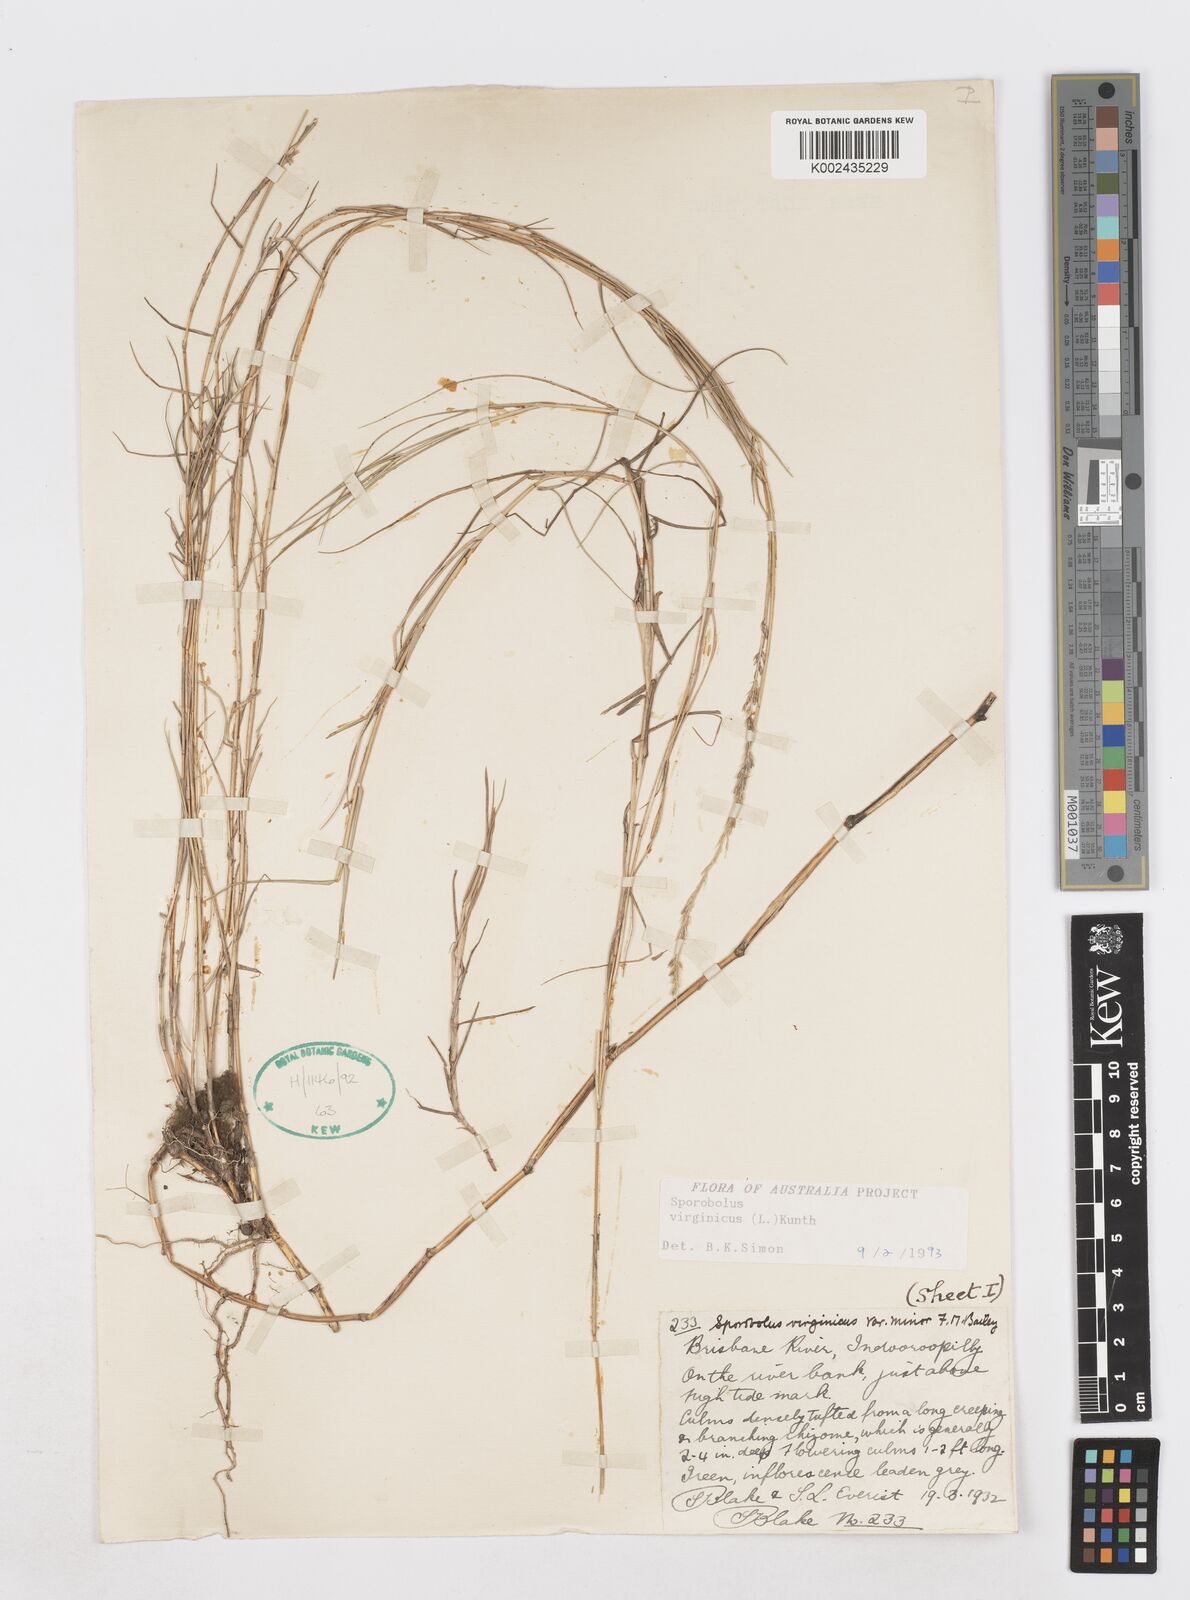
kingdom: Plantae
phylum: Tracheophyta
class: Liliopsida
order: Poales
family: Poaceae
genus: Sporobolus
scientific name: Sporobolus virginicus
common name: Beach dropseed
